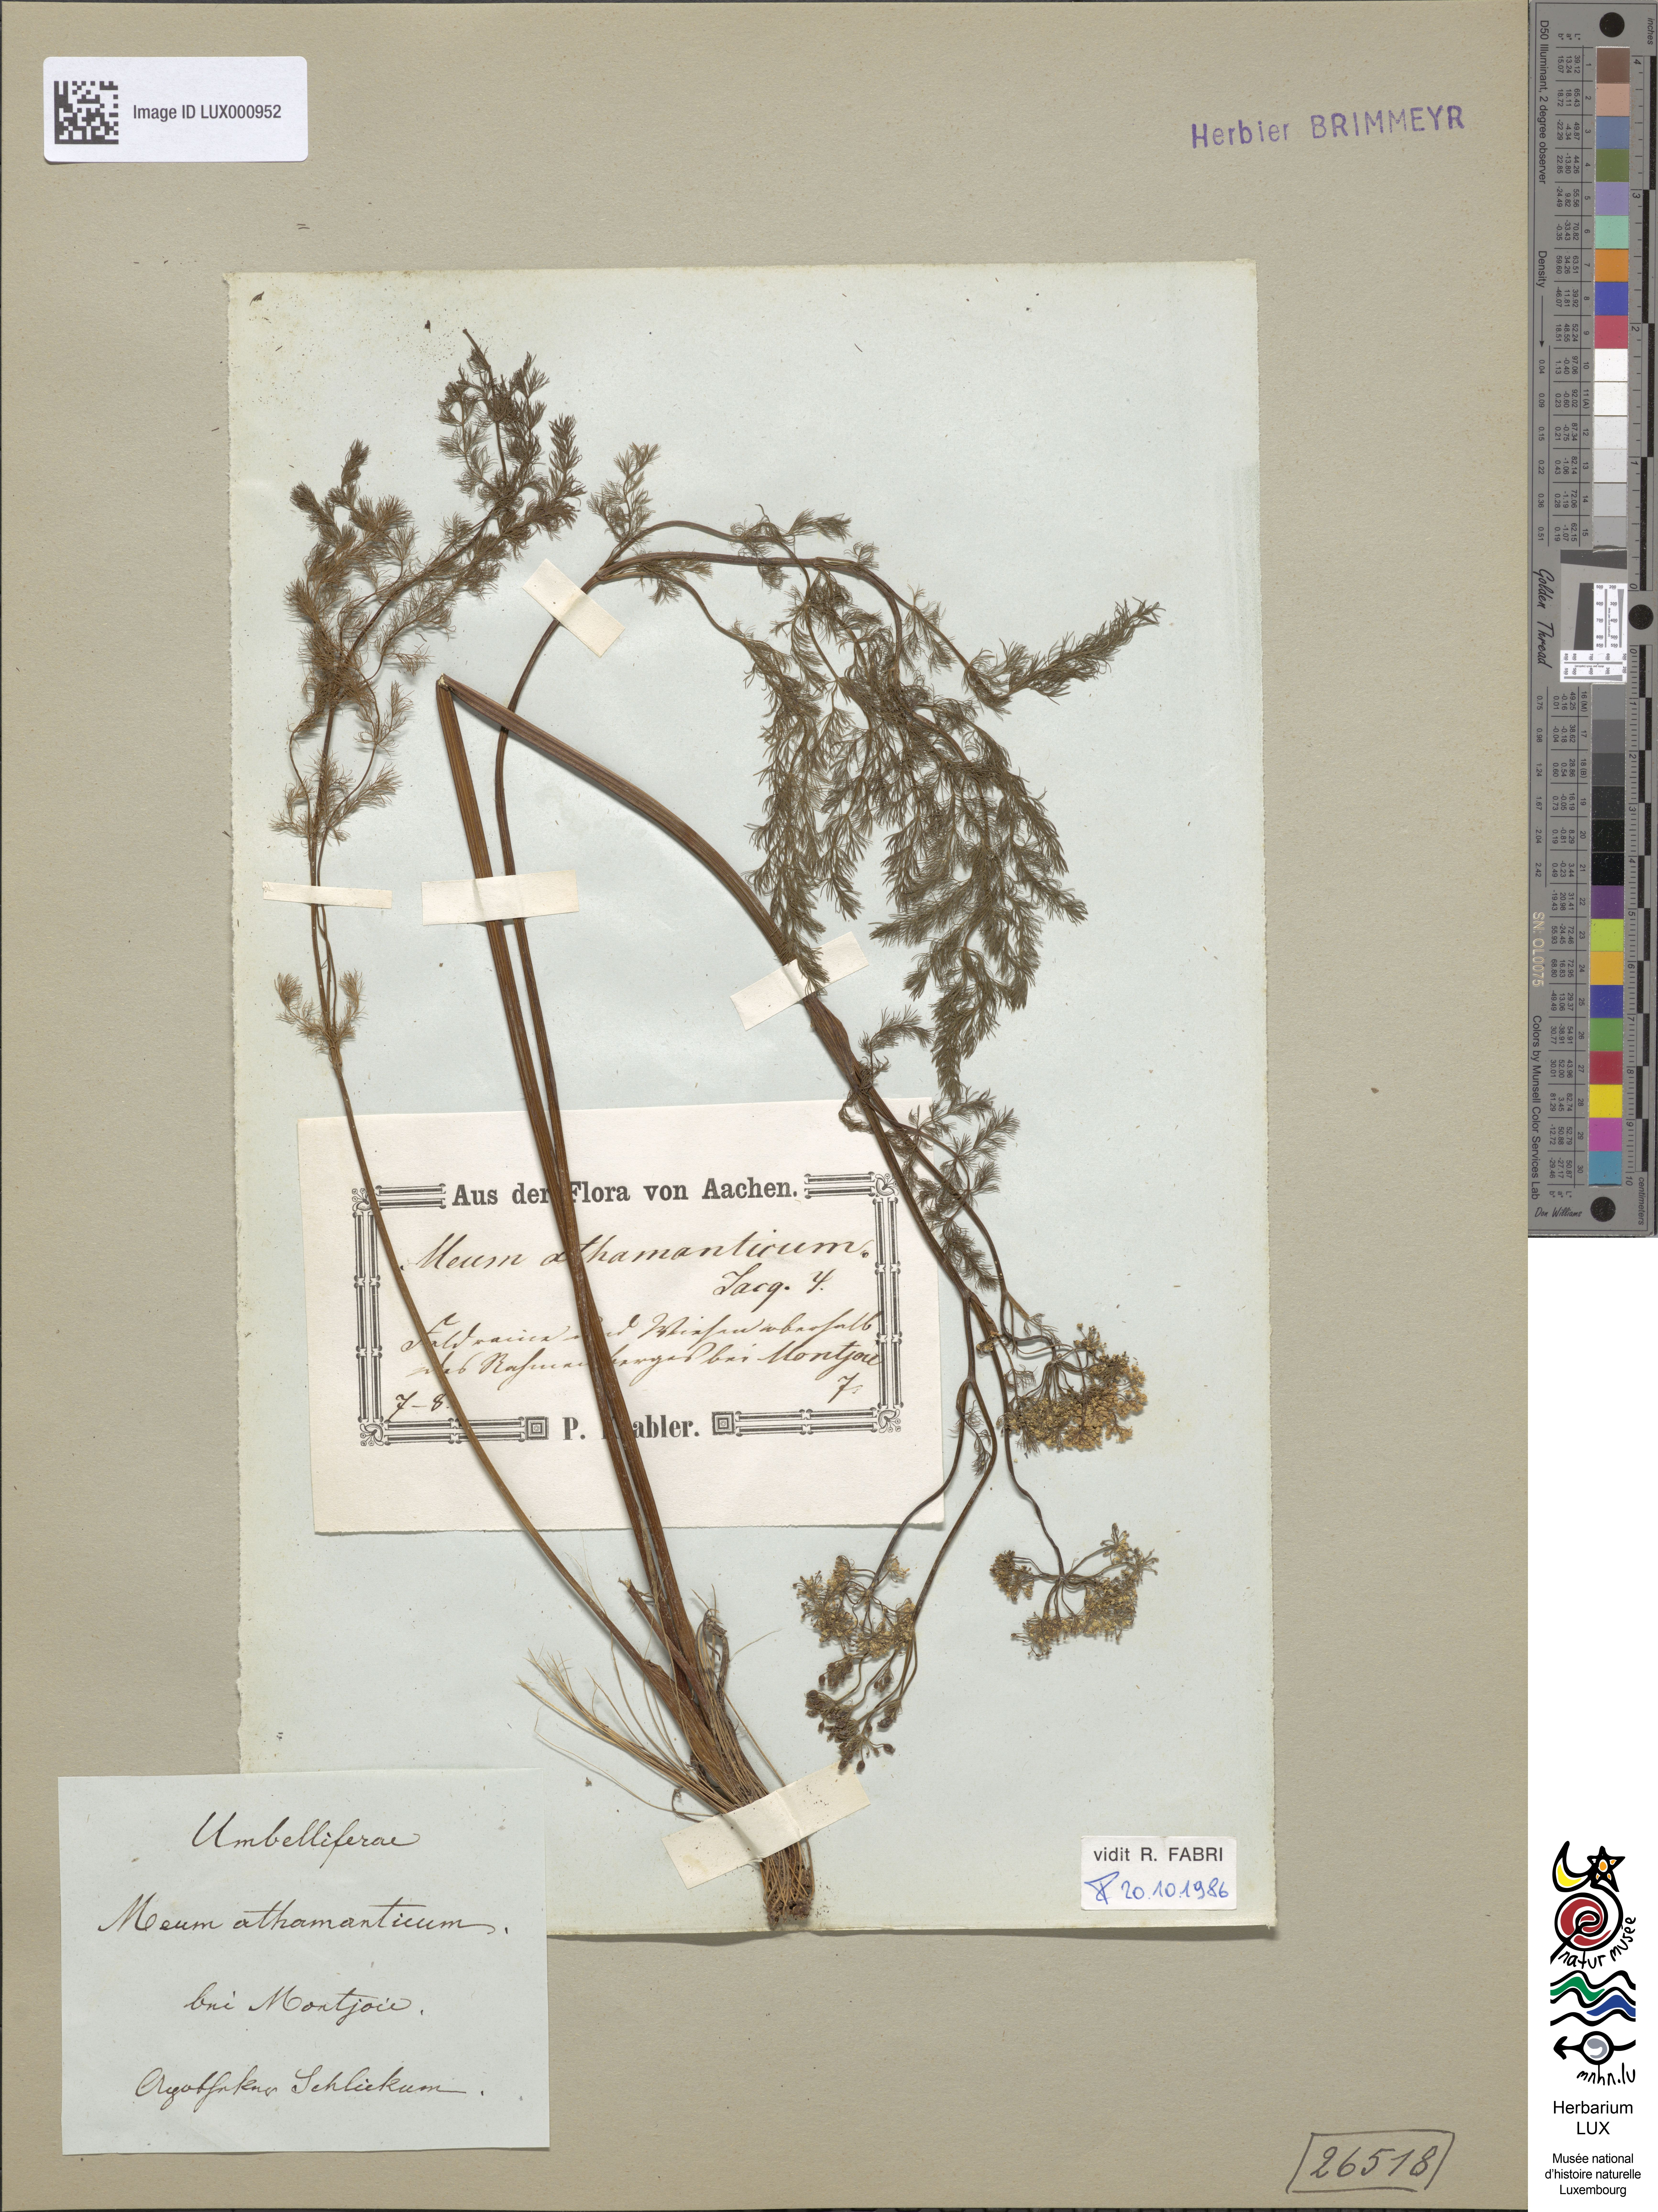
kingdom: Plantae
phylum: Tracheophyta
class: Magnoliopsida
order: Apiales
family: Apiaceae
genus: Meum
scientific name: Meum athamanticum
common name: Spignel
